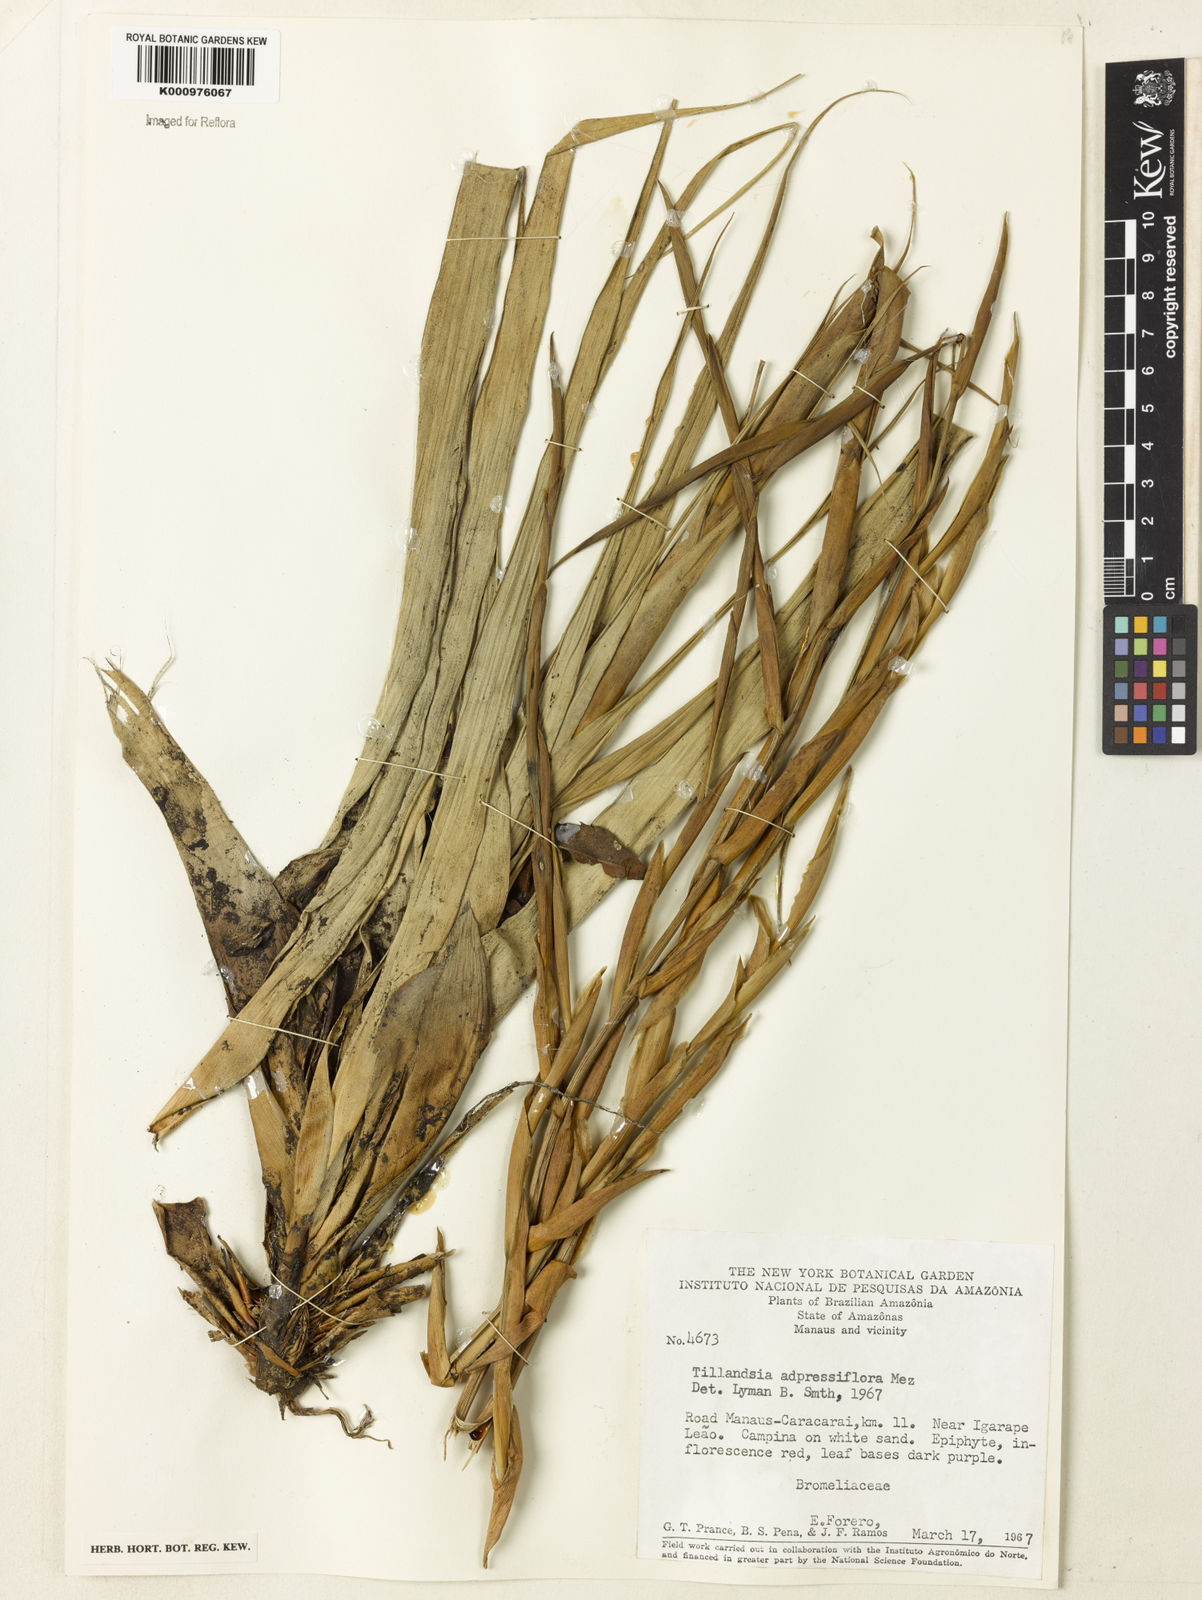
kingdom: Plantae
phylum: Tracheophyta
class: Liliopsida
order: Poales
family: Bromeliaceae
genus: Tillandsia
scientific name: Tillandsia adpressiflora
